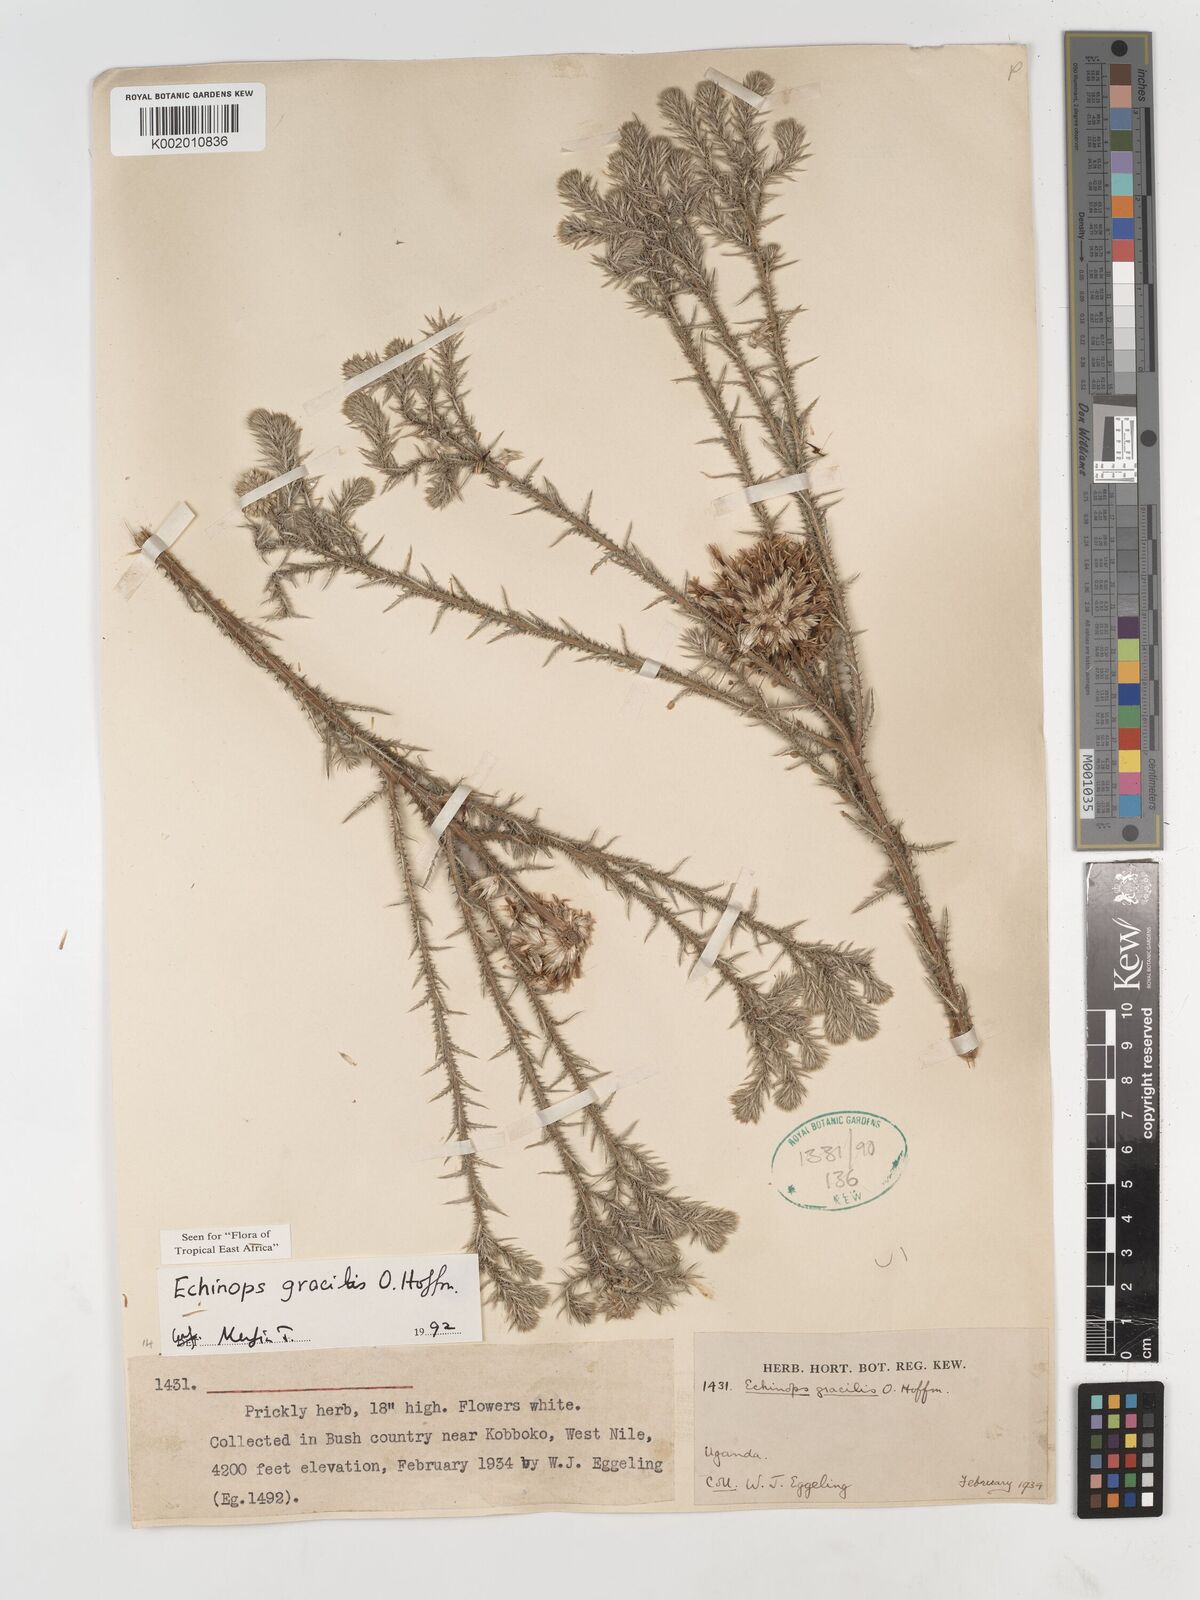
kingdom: Plantae
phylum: Tracheophyta
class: Magnoliopsida
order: Asterales
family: Asteraceae
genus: Echinops
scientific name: Echinops gracilis
